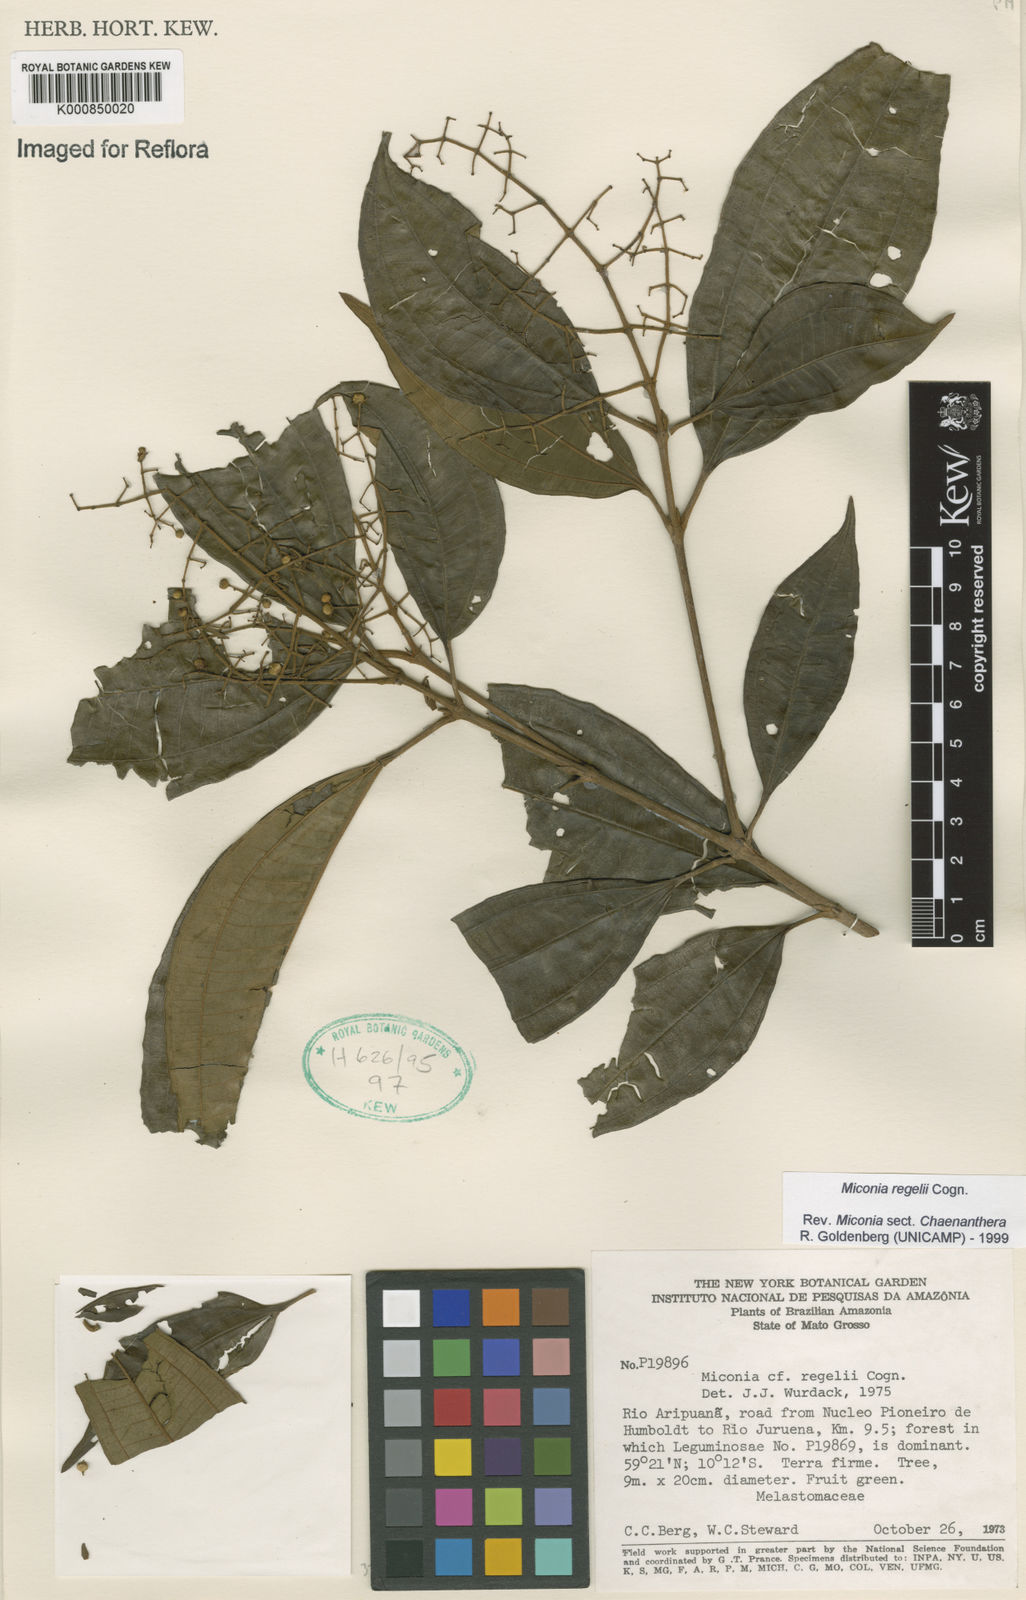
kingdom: Plantae
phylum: Tracheophyta
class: Magnoliopsida
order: Myrtales
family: Melastomataceae
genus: Miconia
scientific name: Miconia regelii
